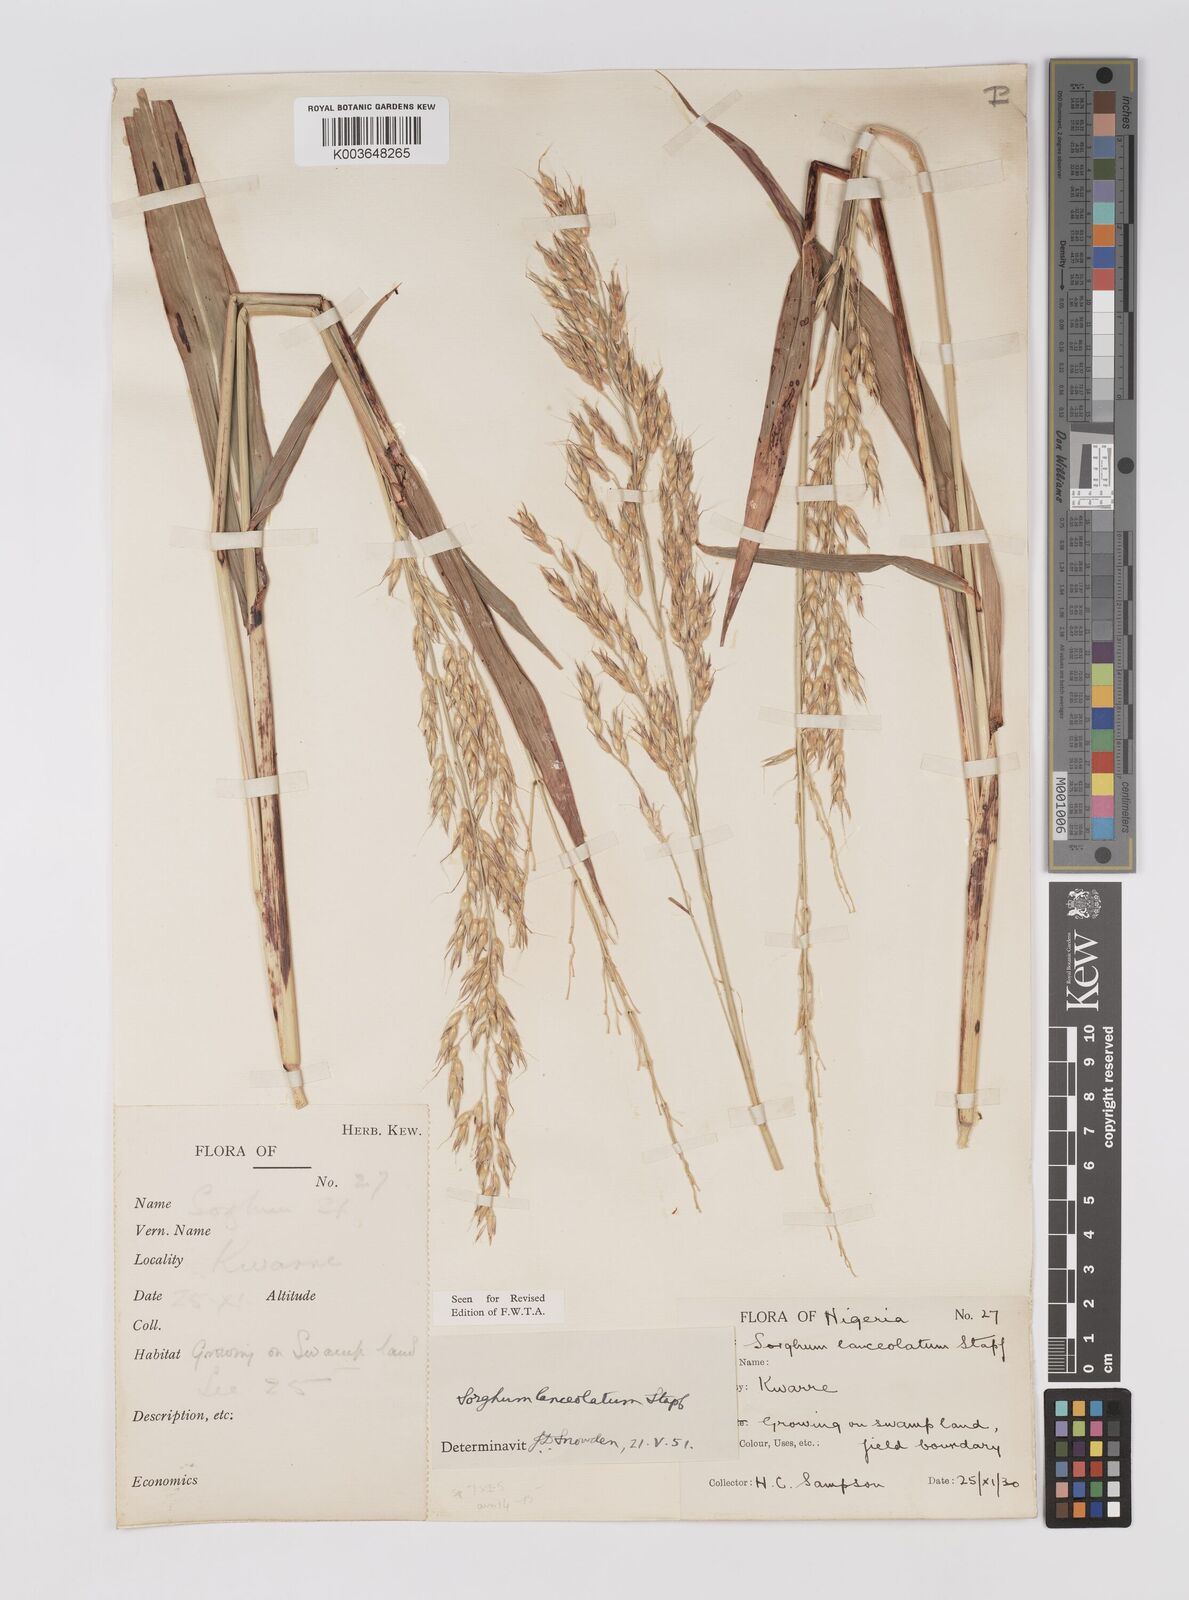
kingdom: Plantae
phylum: Tracheophyta
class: Liliopsida
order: Poales
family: Poaceae
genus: Sorghum
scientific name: Sorghum arundinaceum
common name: Sorghum
